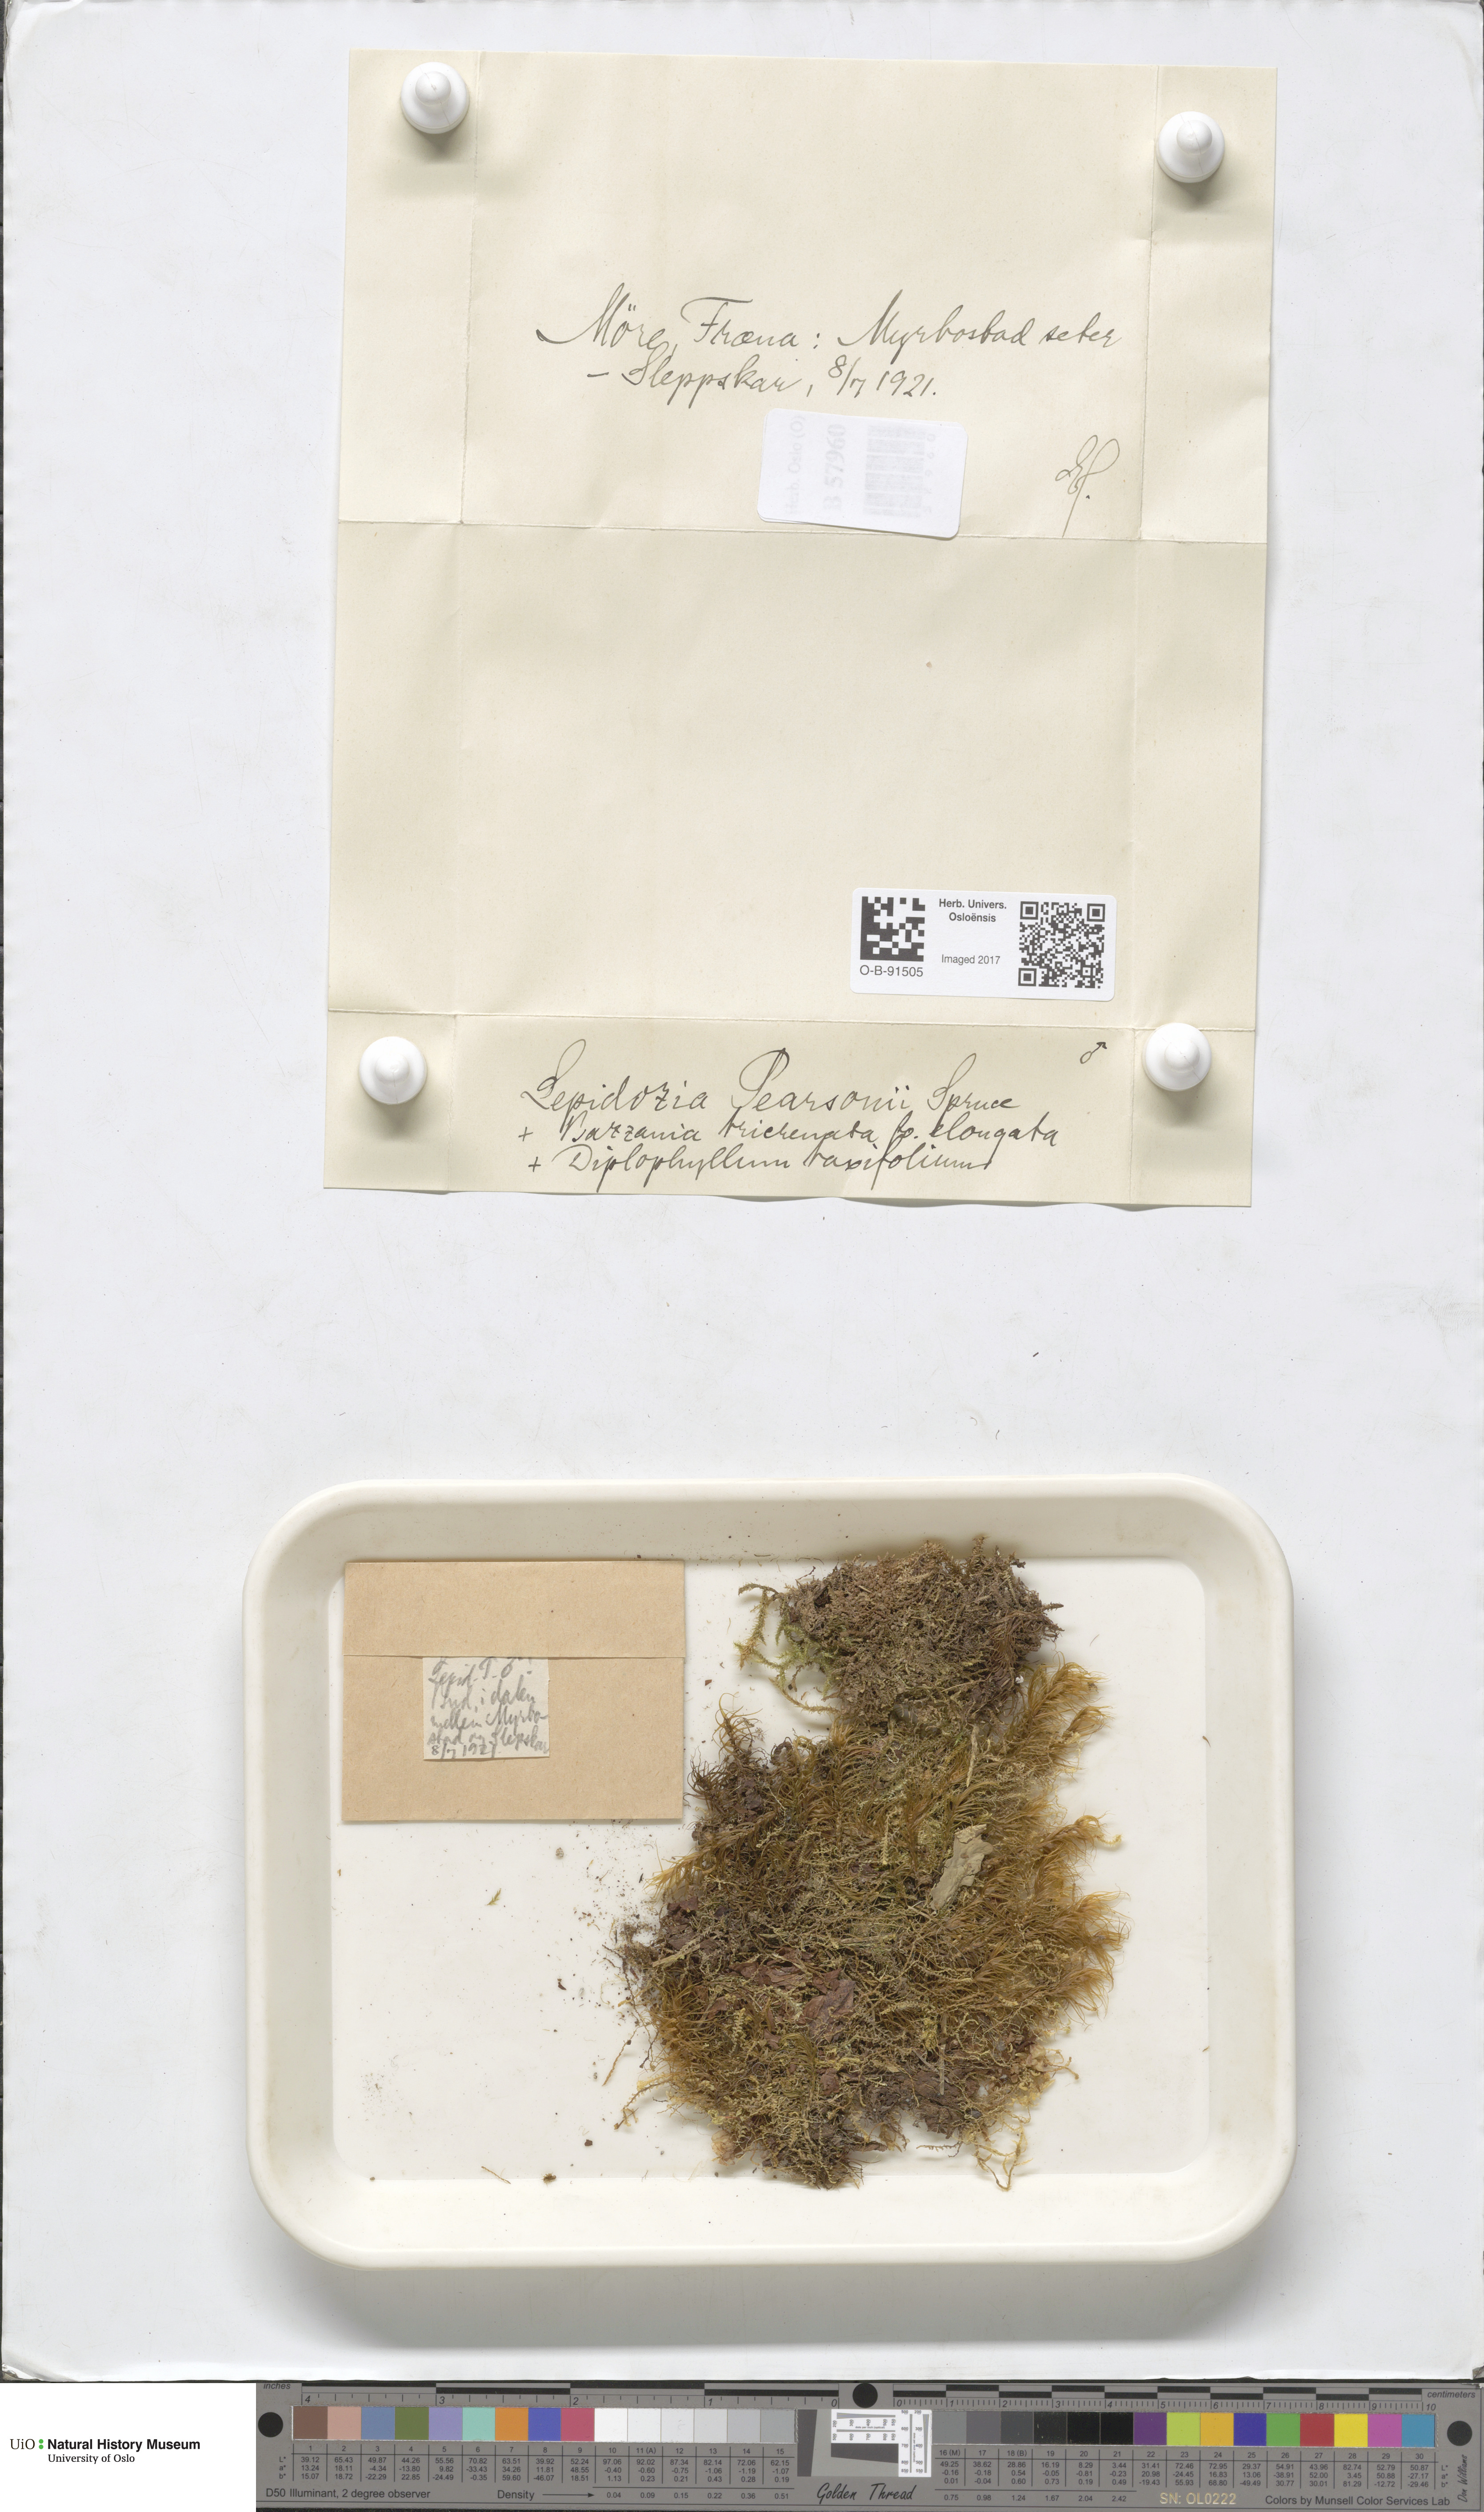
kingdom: Plantae
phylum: Marchantiophyta
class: Jungermanniopsida
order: Jungermanniales
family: Lepidoziaceae
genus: Lepidozia
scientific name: Lepidozia pearsonii
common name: Pearson's fingerwort
